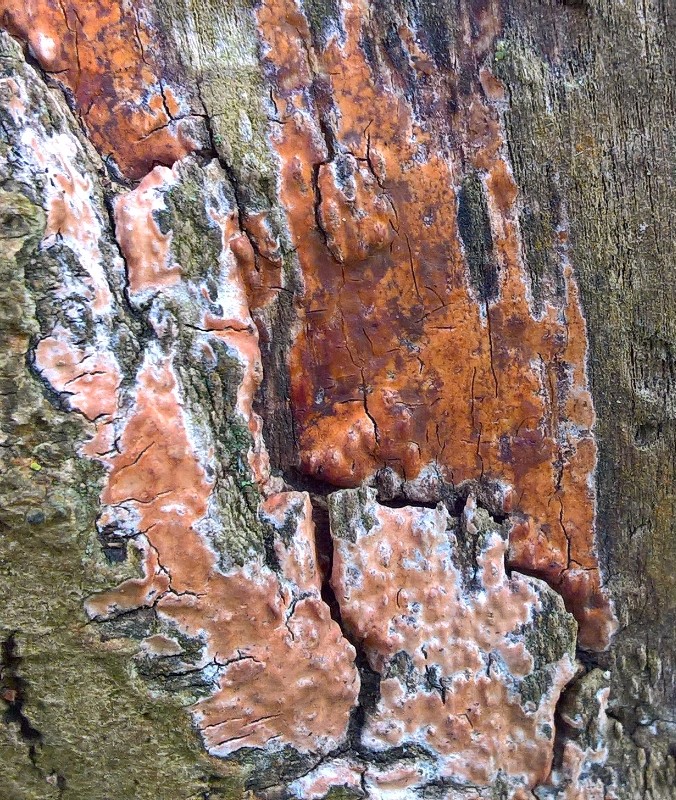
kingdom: Fungi
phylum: Basidiomycota
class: Agaricomycetes
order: Russulales
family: Peniophoraceae
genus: Peniophora
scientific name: Peniophora incarnata
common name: laksefarvet voksskind
